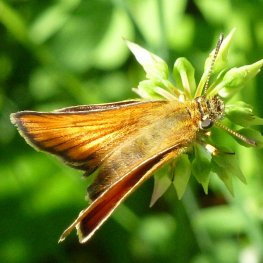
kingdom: Animalia
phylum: Arthropoda
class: Insecta
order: Lepidoptera
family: Hesperiidae
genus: Thymelicus
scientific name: Thymelicus lineola
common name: European Skipper
